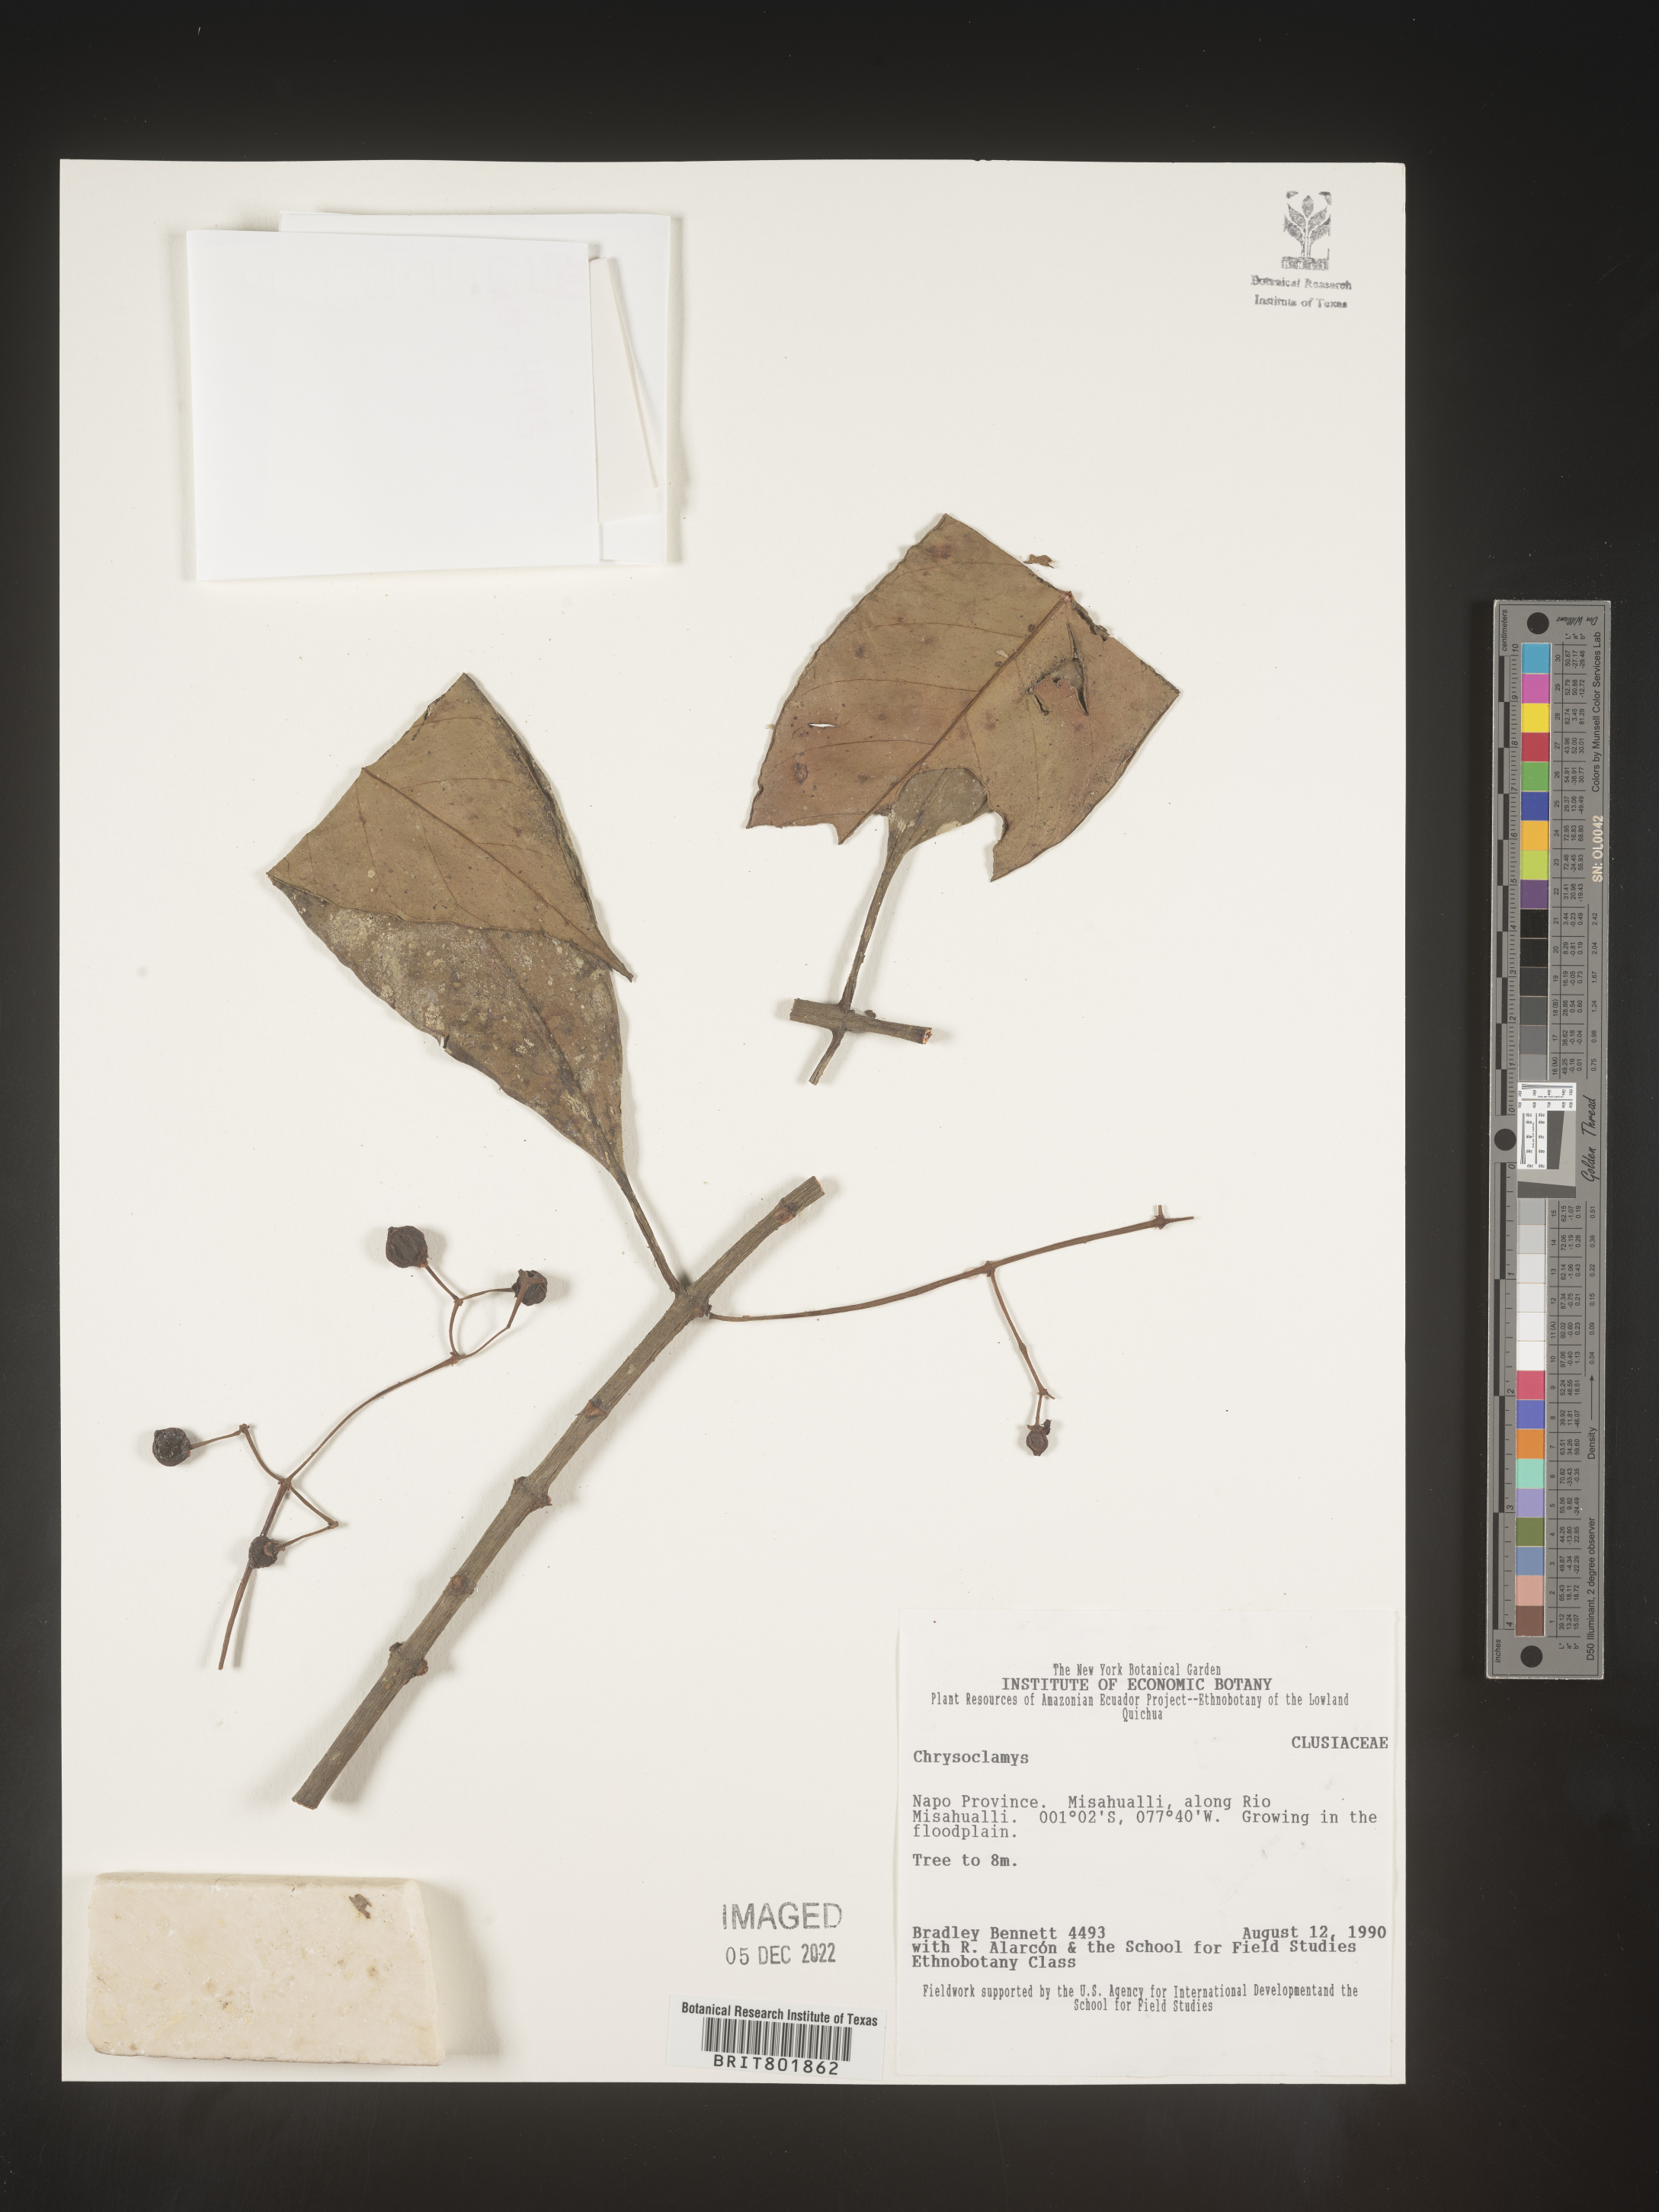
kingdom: Plantae
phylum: Tracheophyta
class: Magnoliopsida
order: Malpighiales
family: Clusiaceae
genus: Chrysochlamys
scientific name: Chrysochlamys
